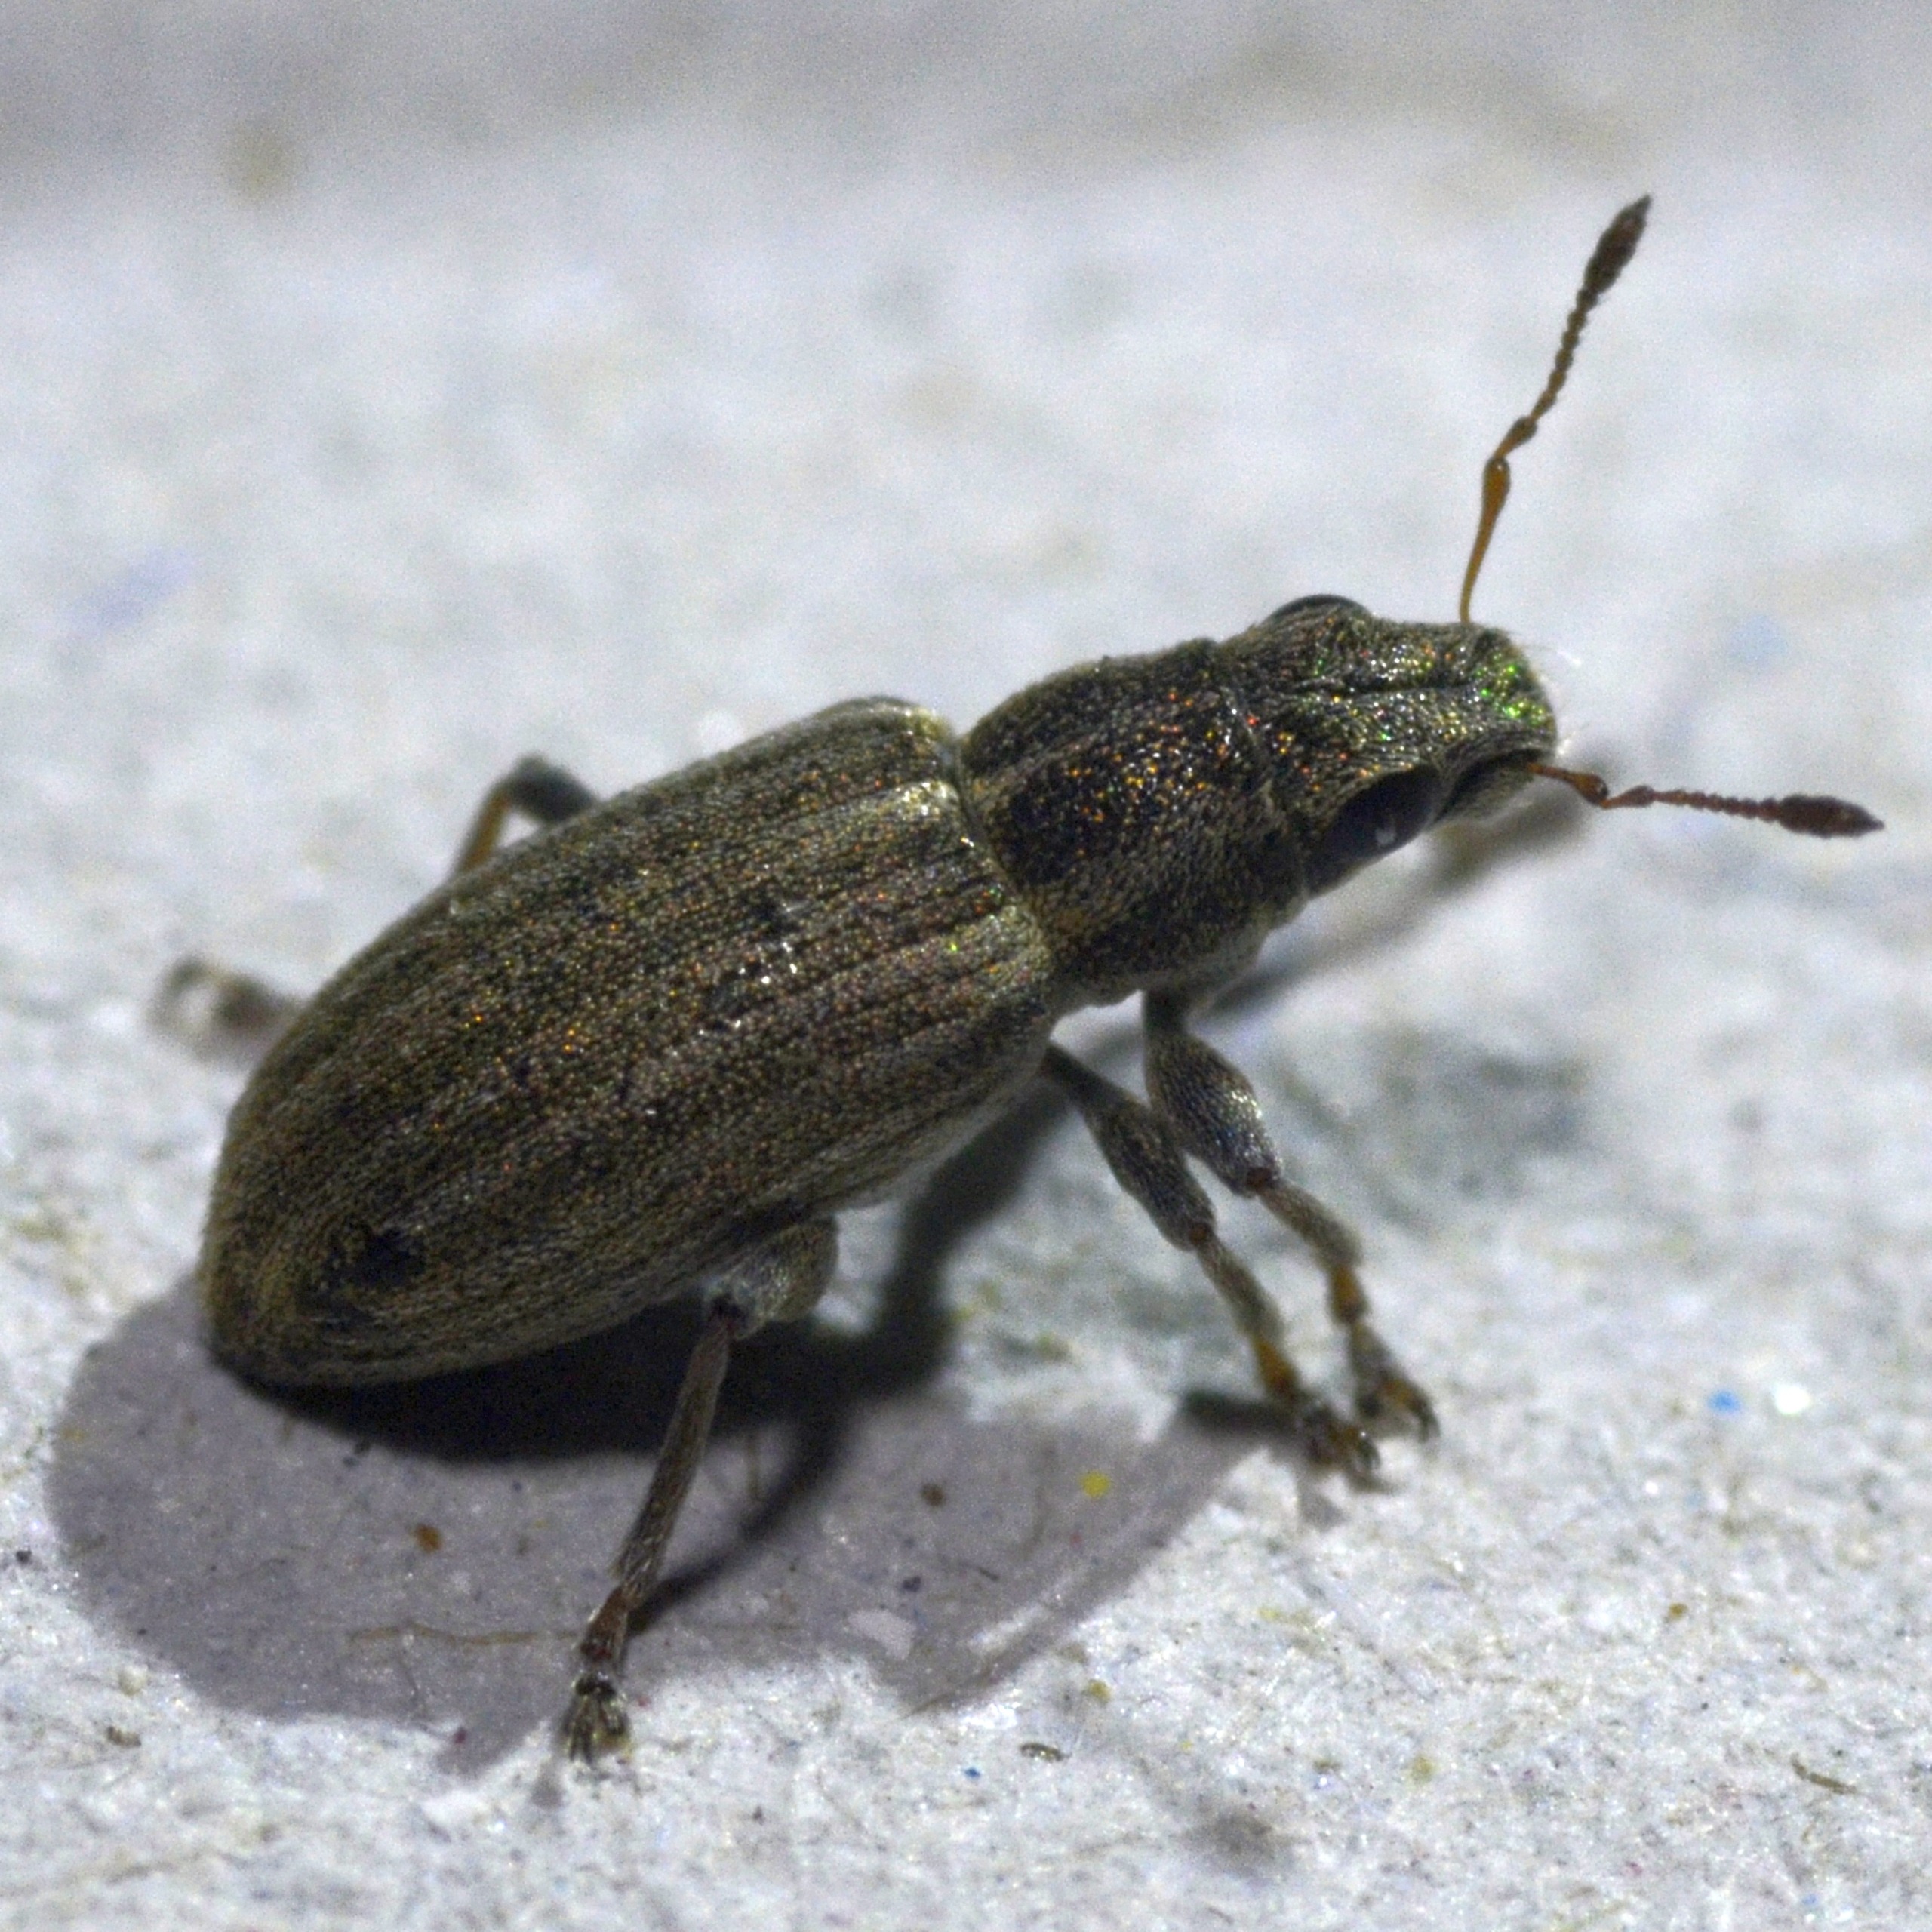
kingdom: Animalia
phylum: Arthropoda
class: Insecta
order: Coleoptera
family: Curculionidae
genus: Sitona
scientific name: Sitona lineatus
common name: Stribet bladrandbille
